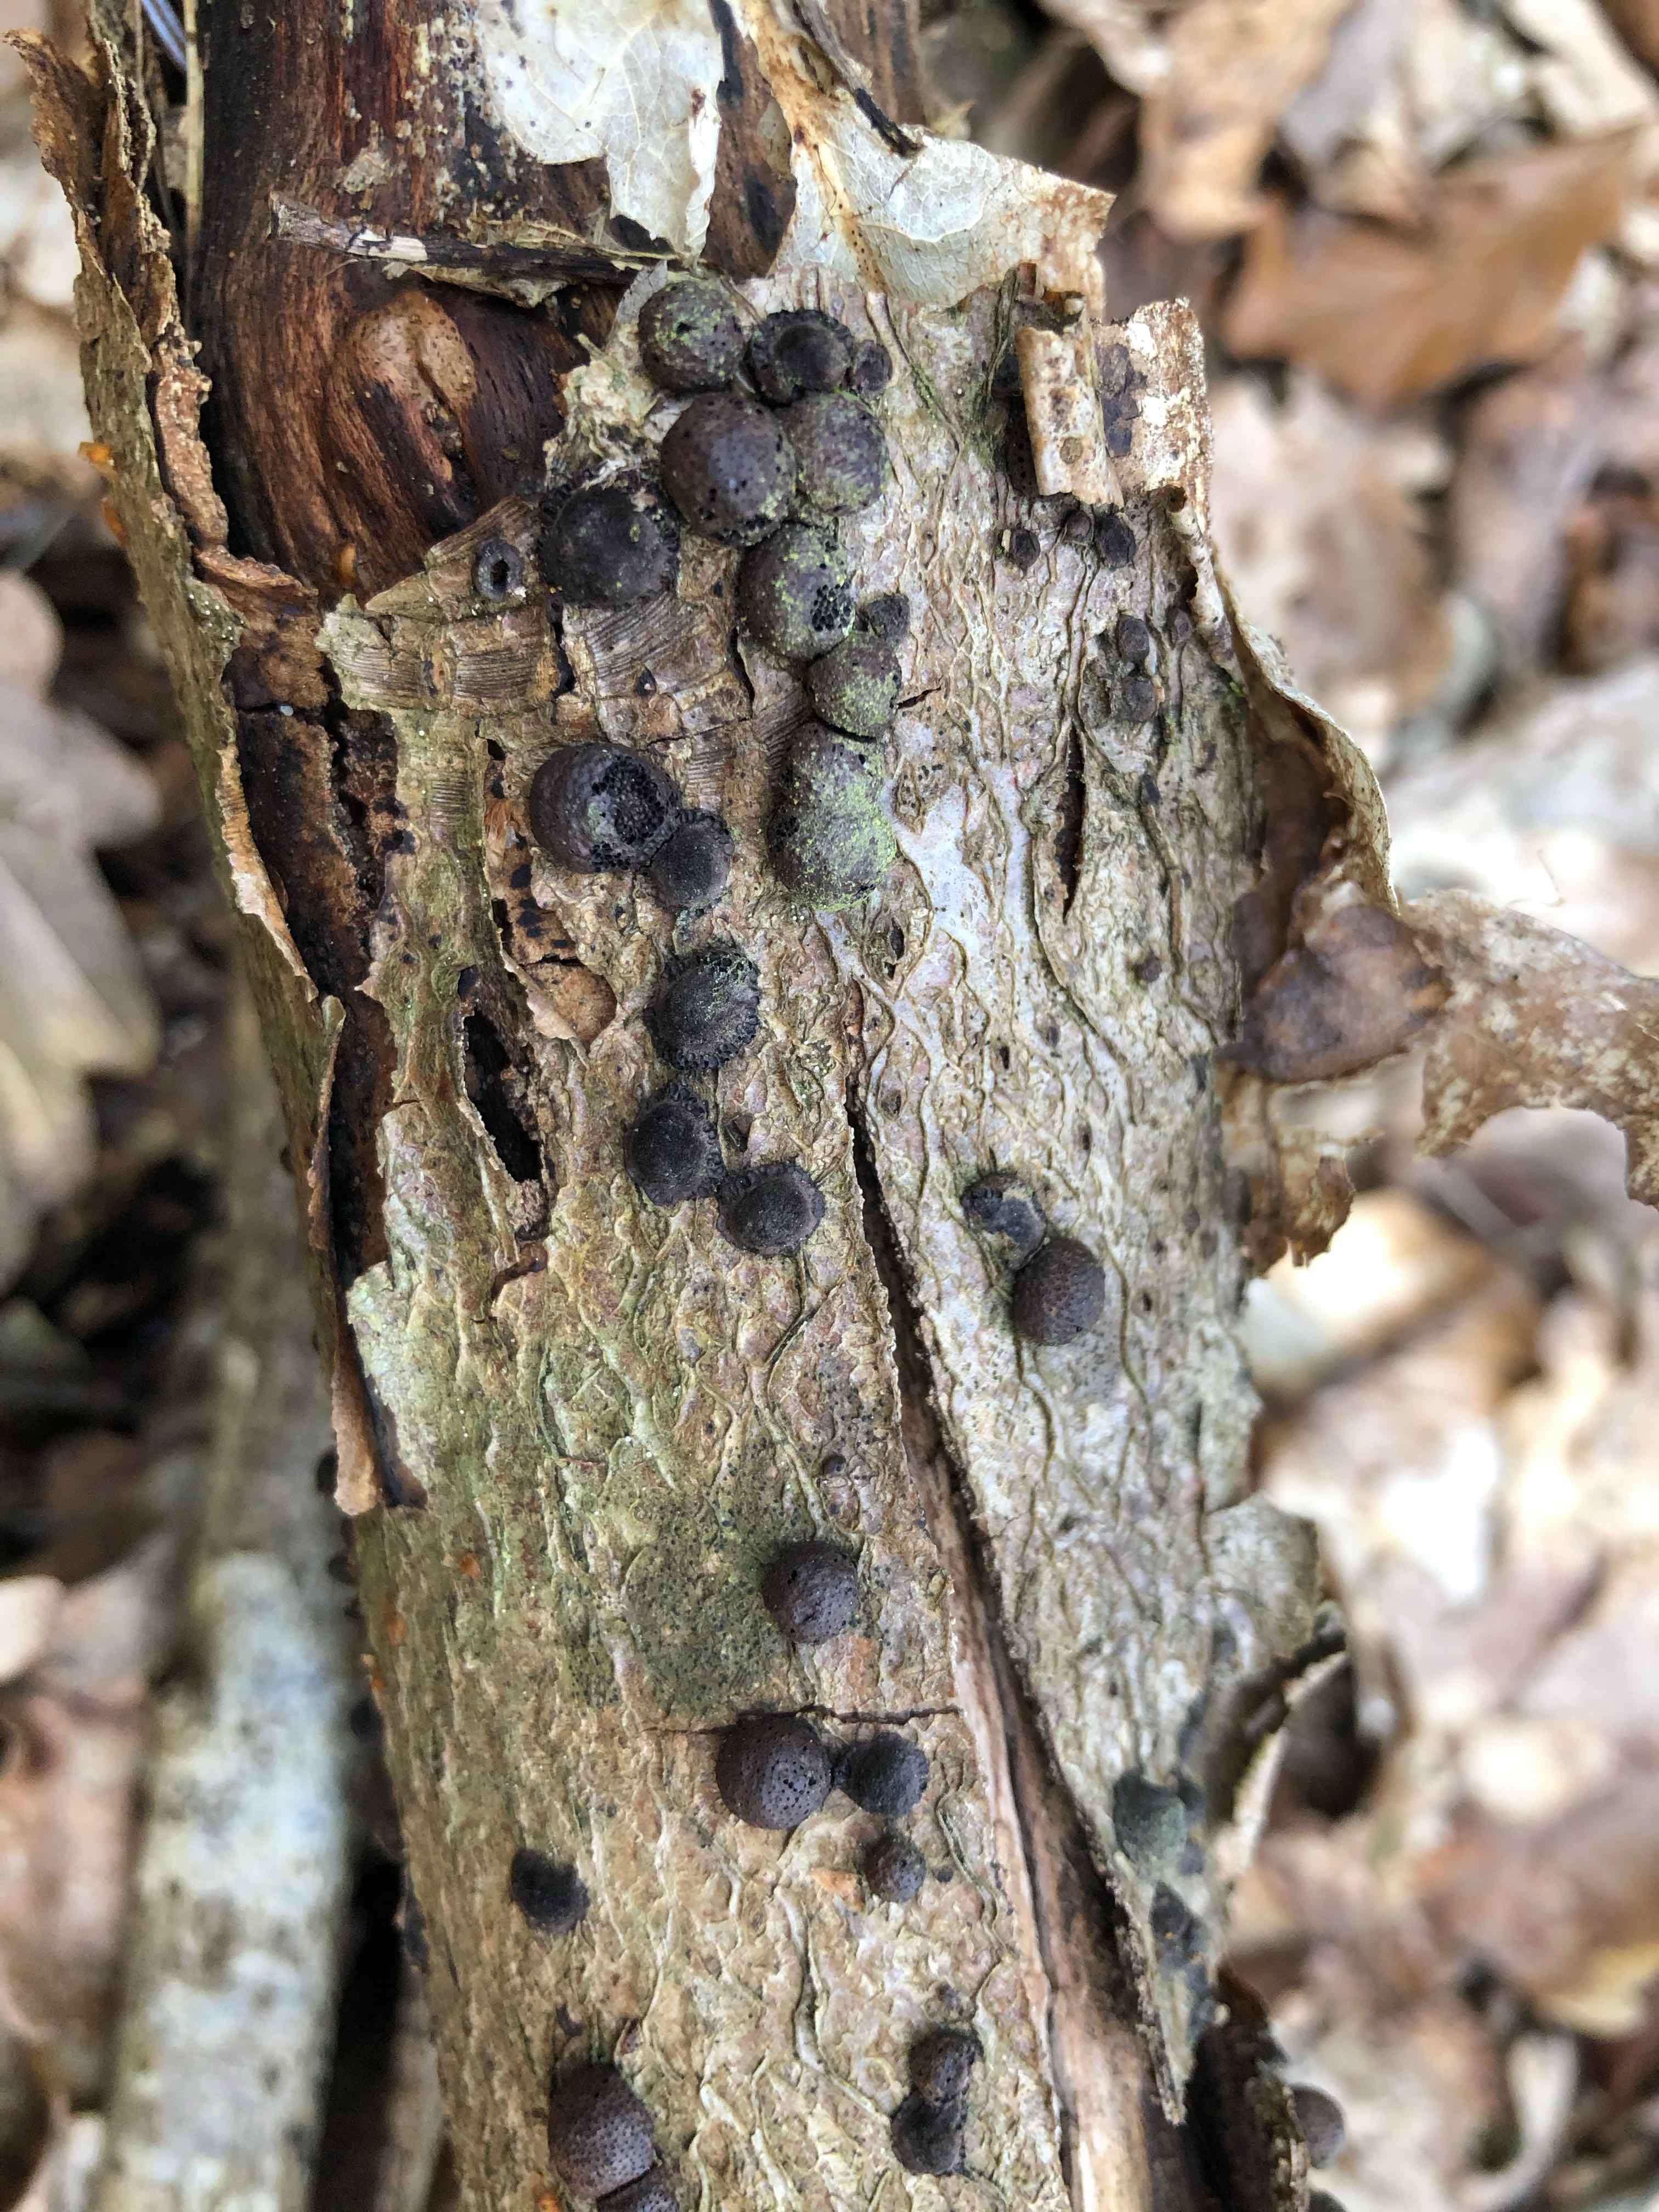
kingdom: Fungi
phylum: Ascomycota
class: Sordariomycetes
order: Xylariales
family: Hypoxylaceae
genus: Hypoxylon
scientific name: Hypoxylon fragiforme
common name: kuljordbær
